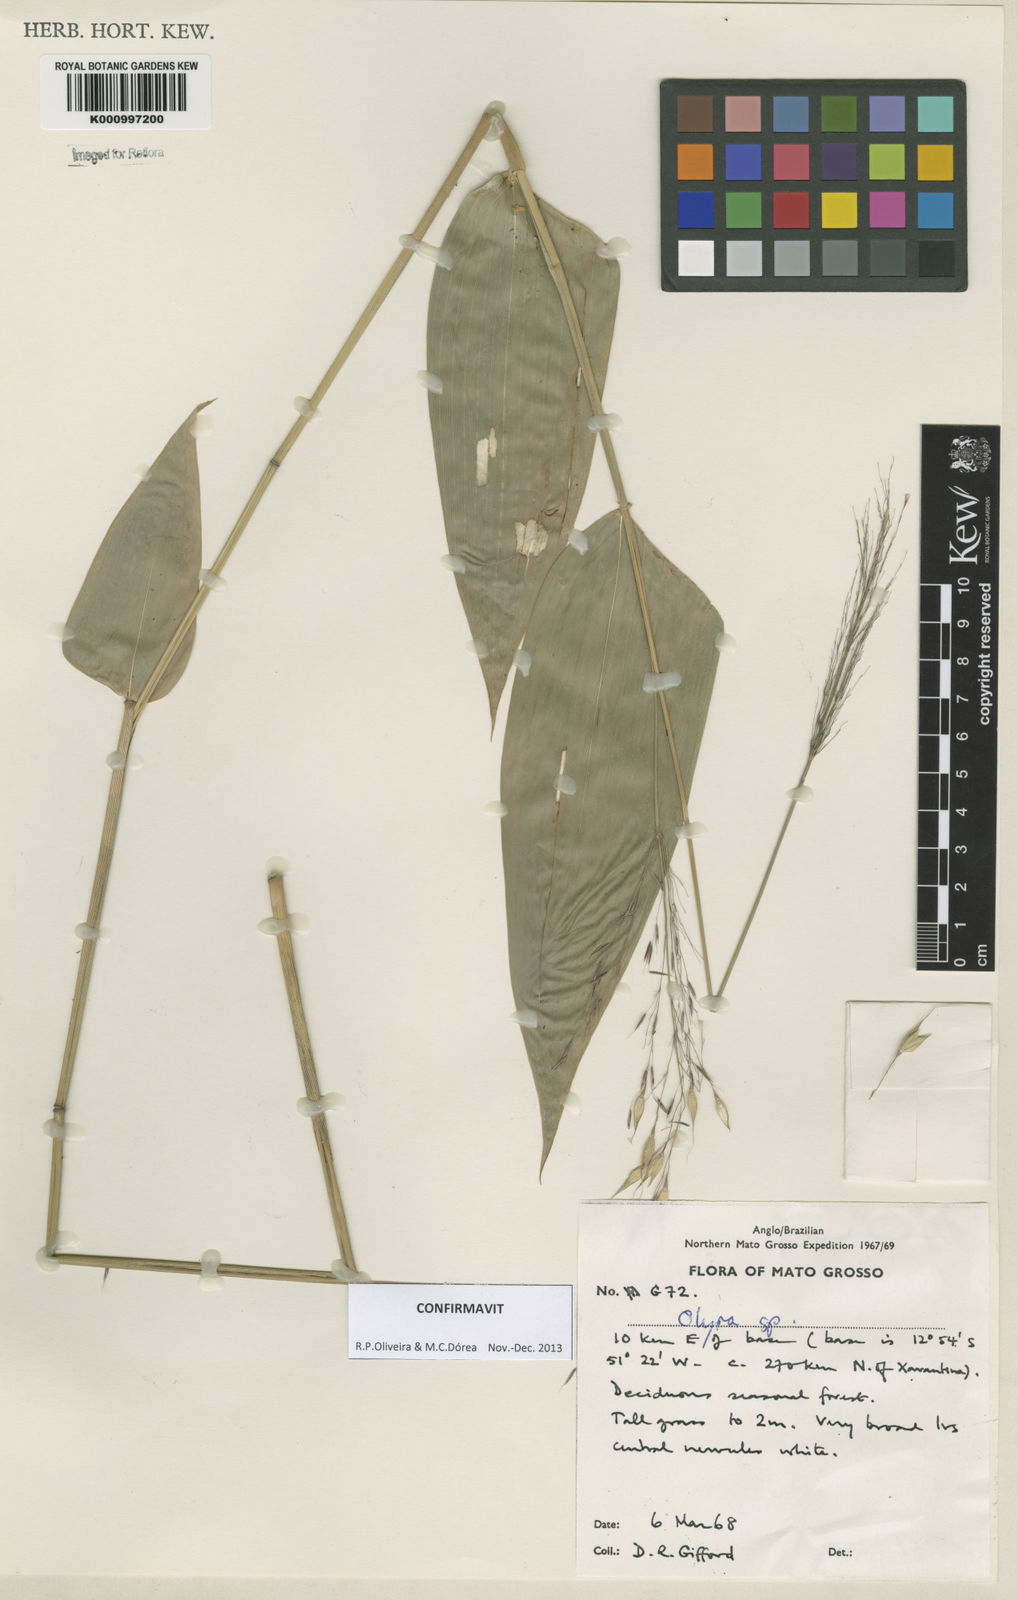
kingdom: Plantae
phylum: Tracheophyta
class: Liliopsida
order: Poales
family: Poaceae
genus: Olyra
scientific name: Olyra ciliatifolia
